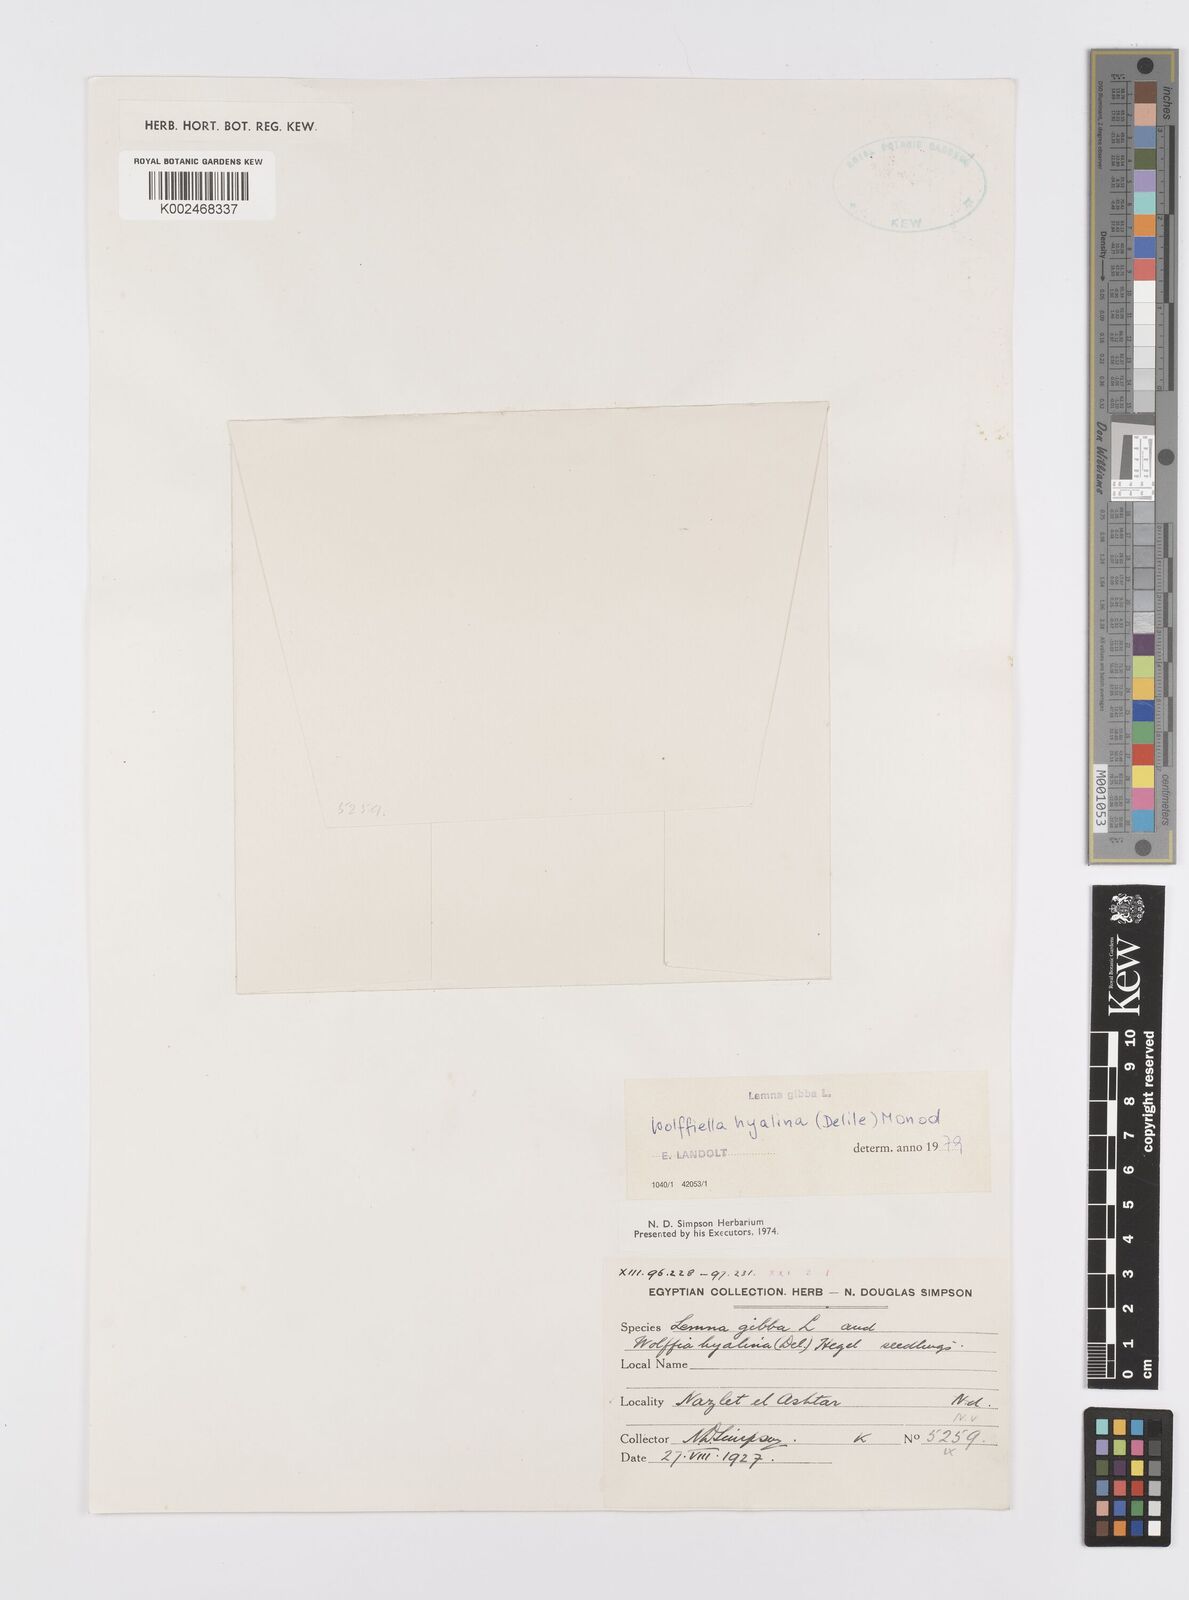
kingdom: Plantae
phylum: Tracheophyta
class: Liliopsida
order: Alismatales
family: Araceae
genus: Wolffiella
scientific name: Wolffiella
